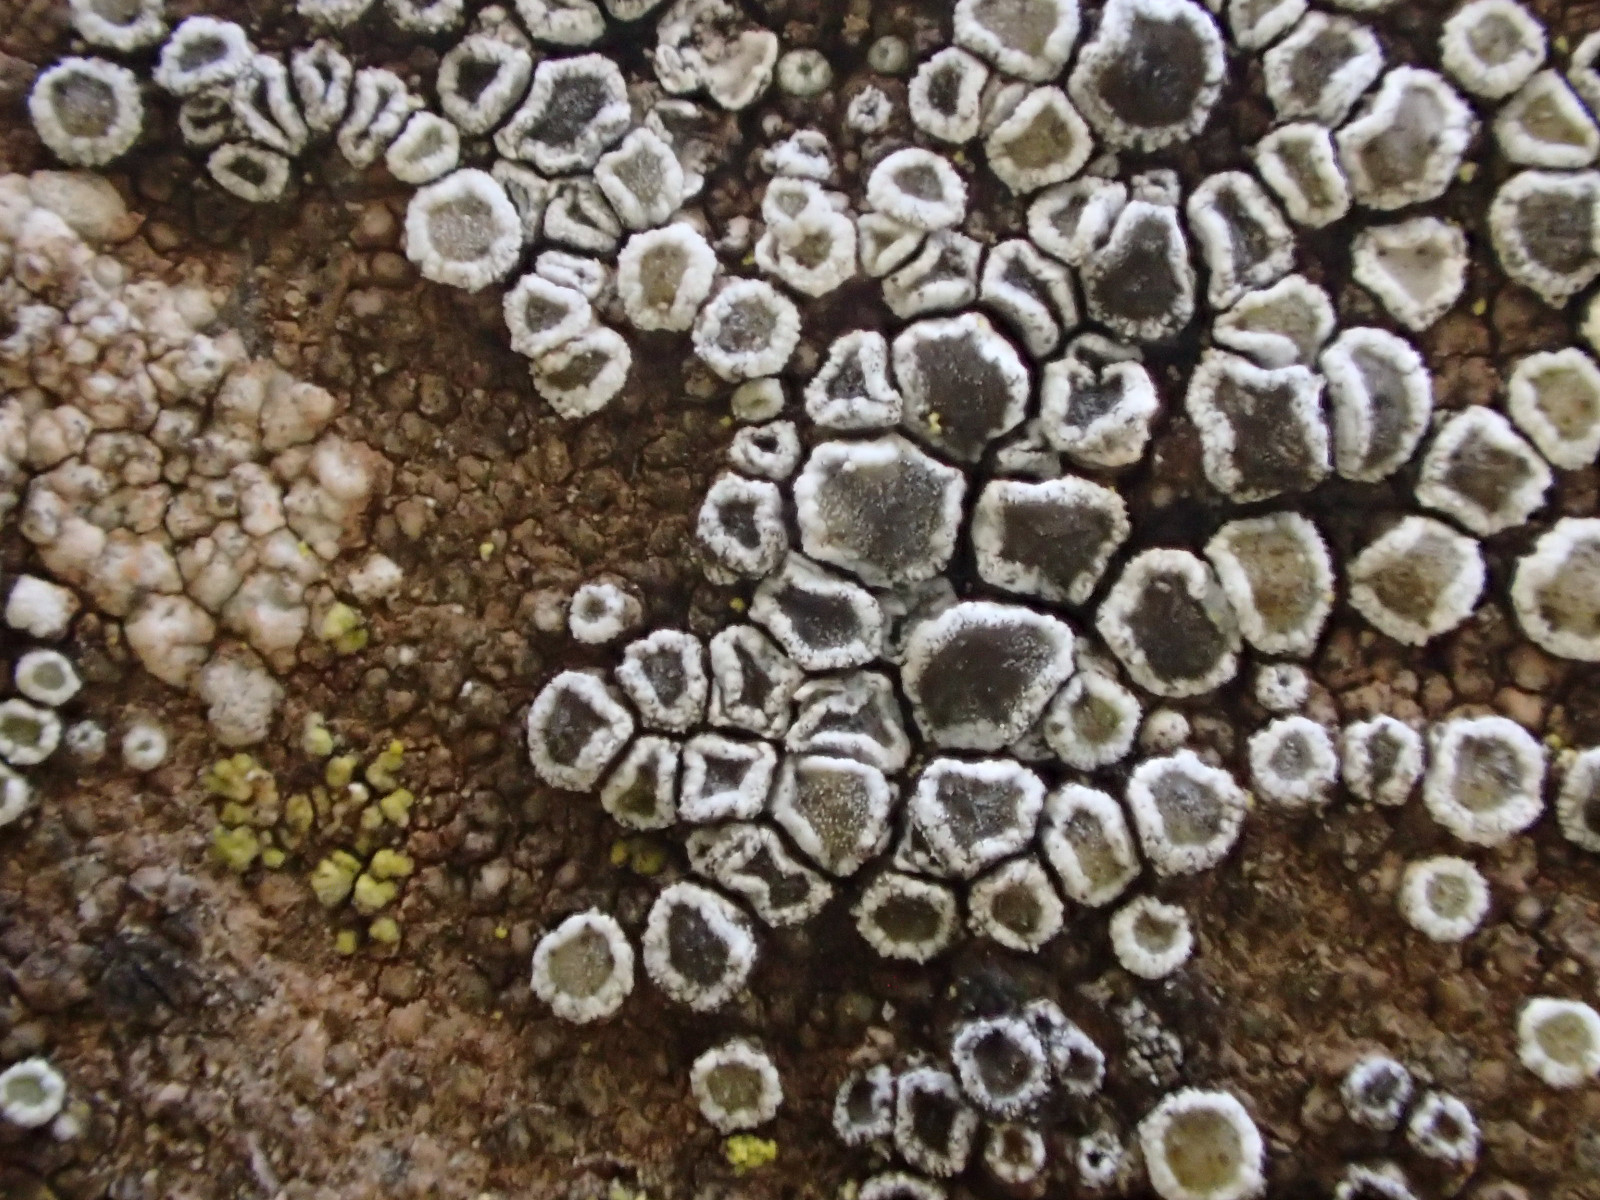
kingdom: Fungi
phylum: Ascomycota
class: Lecanoromycetes
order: Lecanorales
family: Lecanoraceae
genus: Myriolecis
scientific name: Myriolecis crenulata
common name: beton-kantskivelav
